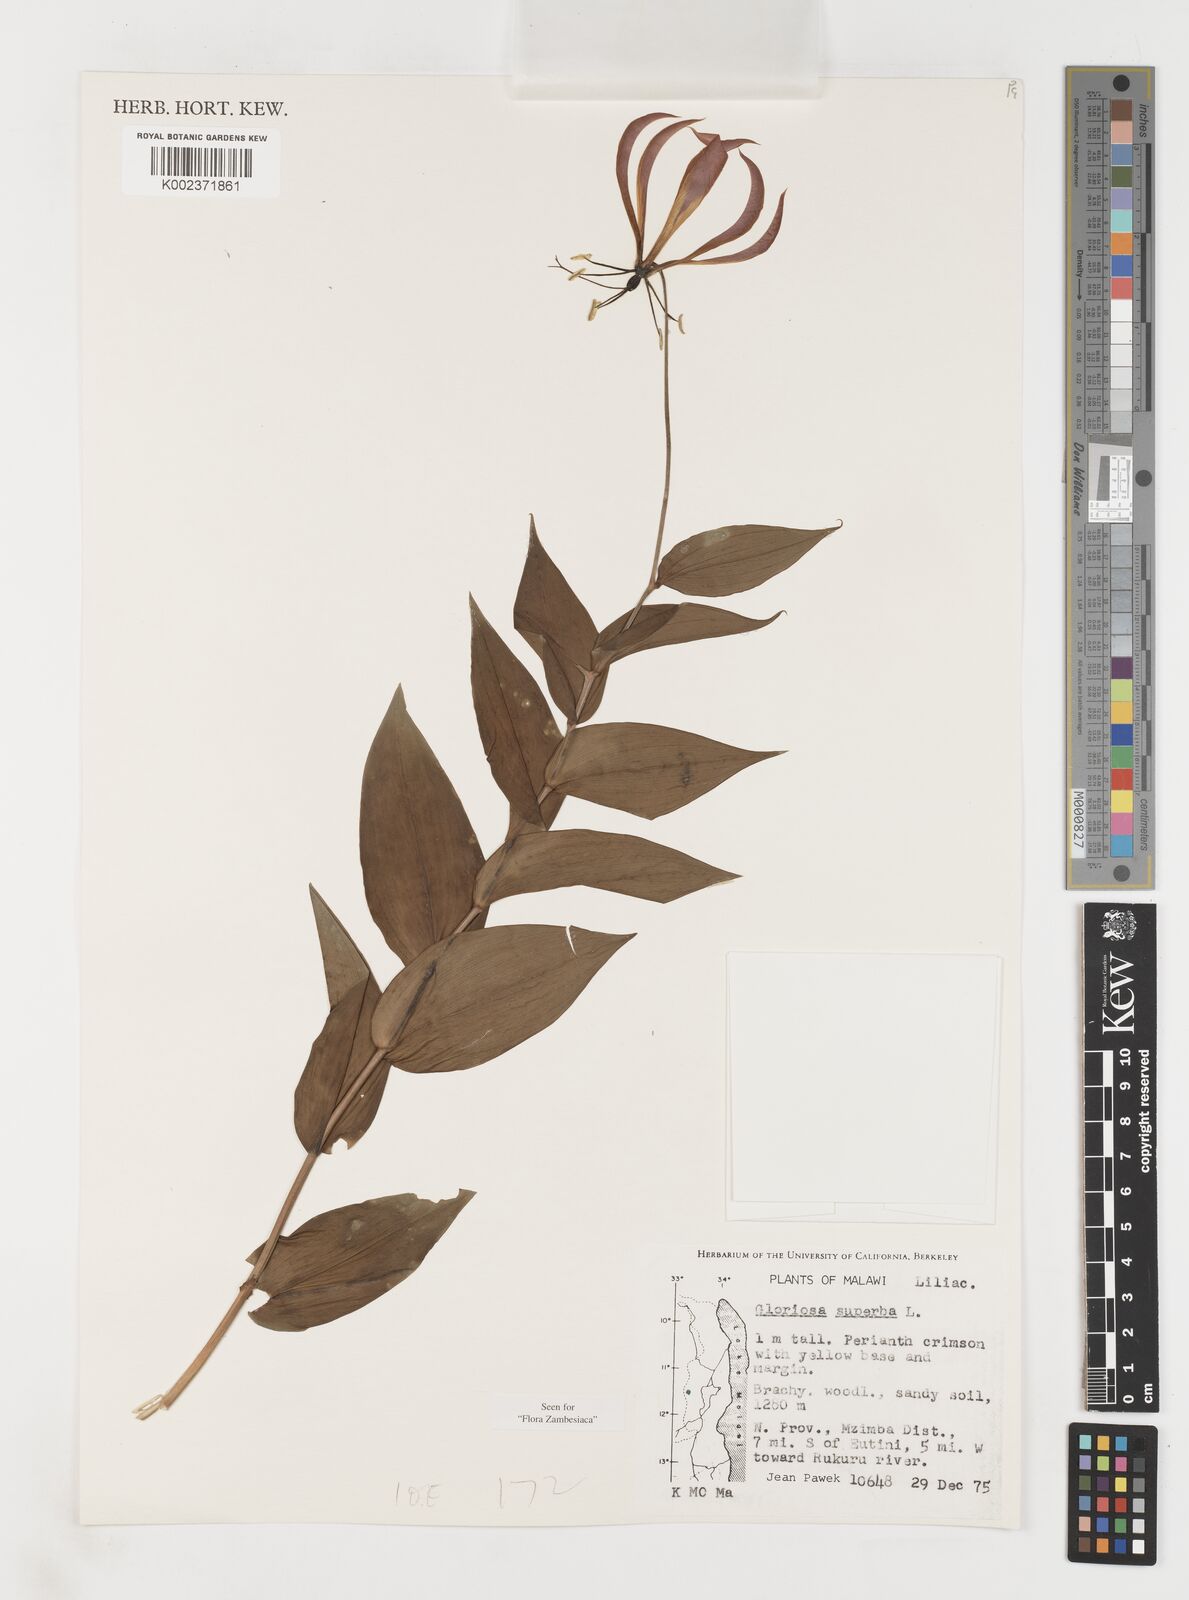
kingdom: Plantae
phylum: Tracheophyta
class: Liliopsida
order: Liliales
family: Colchicaceae
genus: Gloriosa
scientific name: Gloriosa simplex
